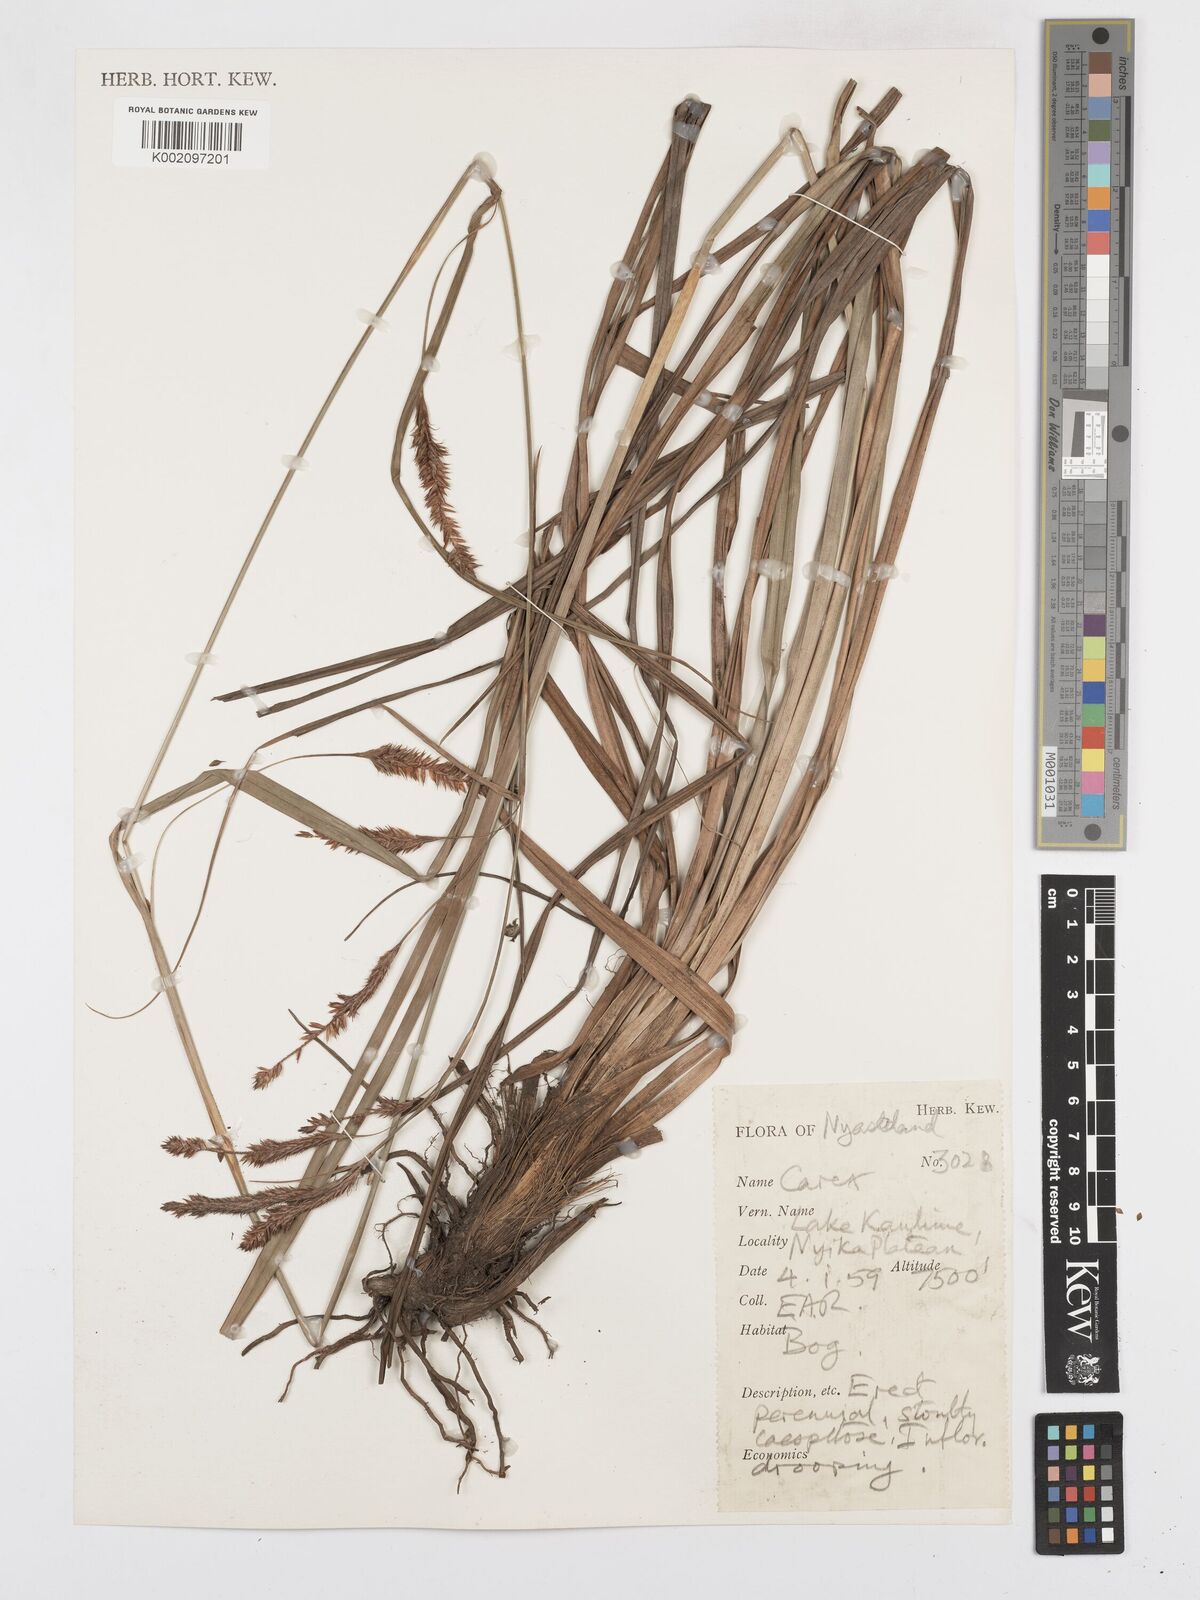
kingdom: Plantae
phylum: Tracheophyta
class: Liliopsida
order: Poales
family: Cyperaceae
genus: Carex
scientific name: Carex
